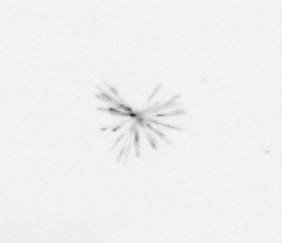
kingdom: Chromista
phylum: Ochrophyta
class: Bacillariophyceae
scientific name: Bacillariophyceae
